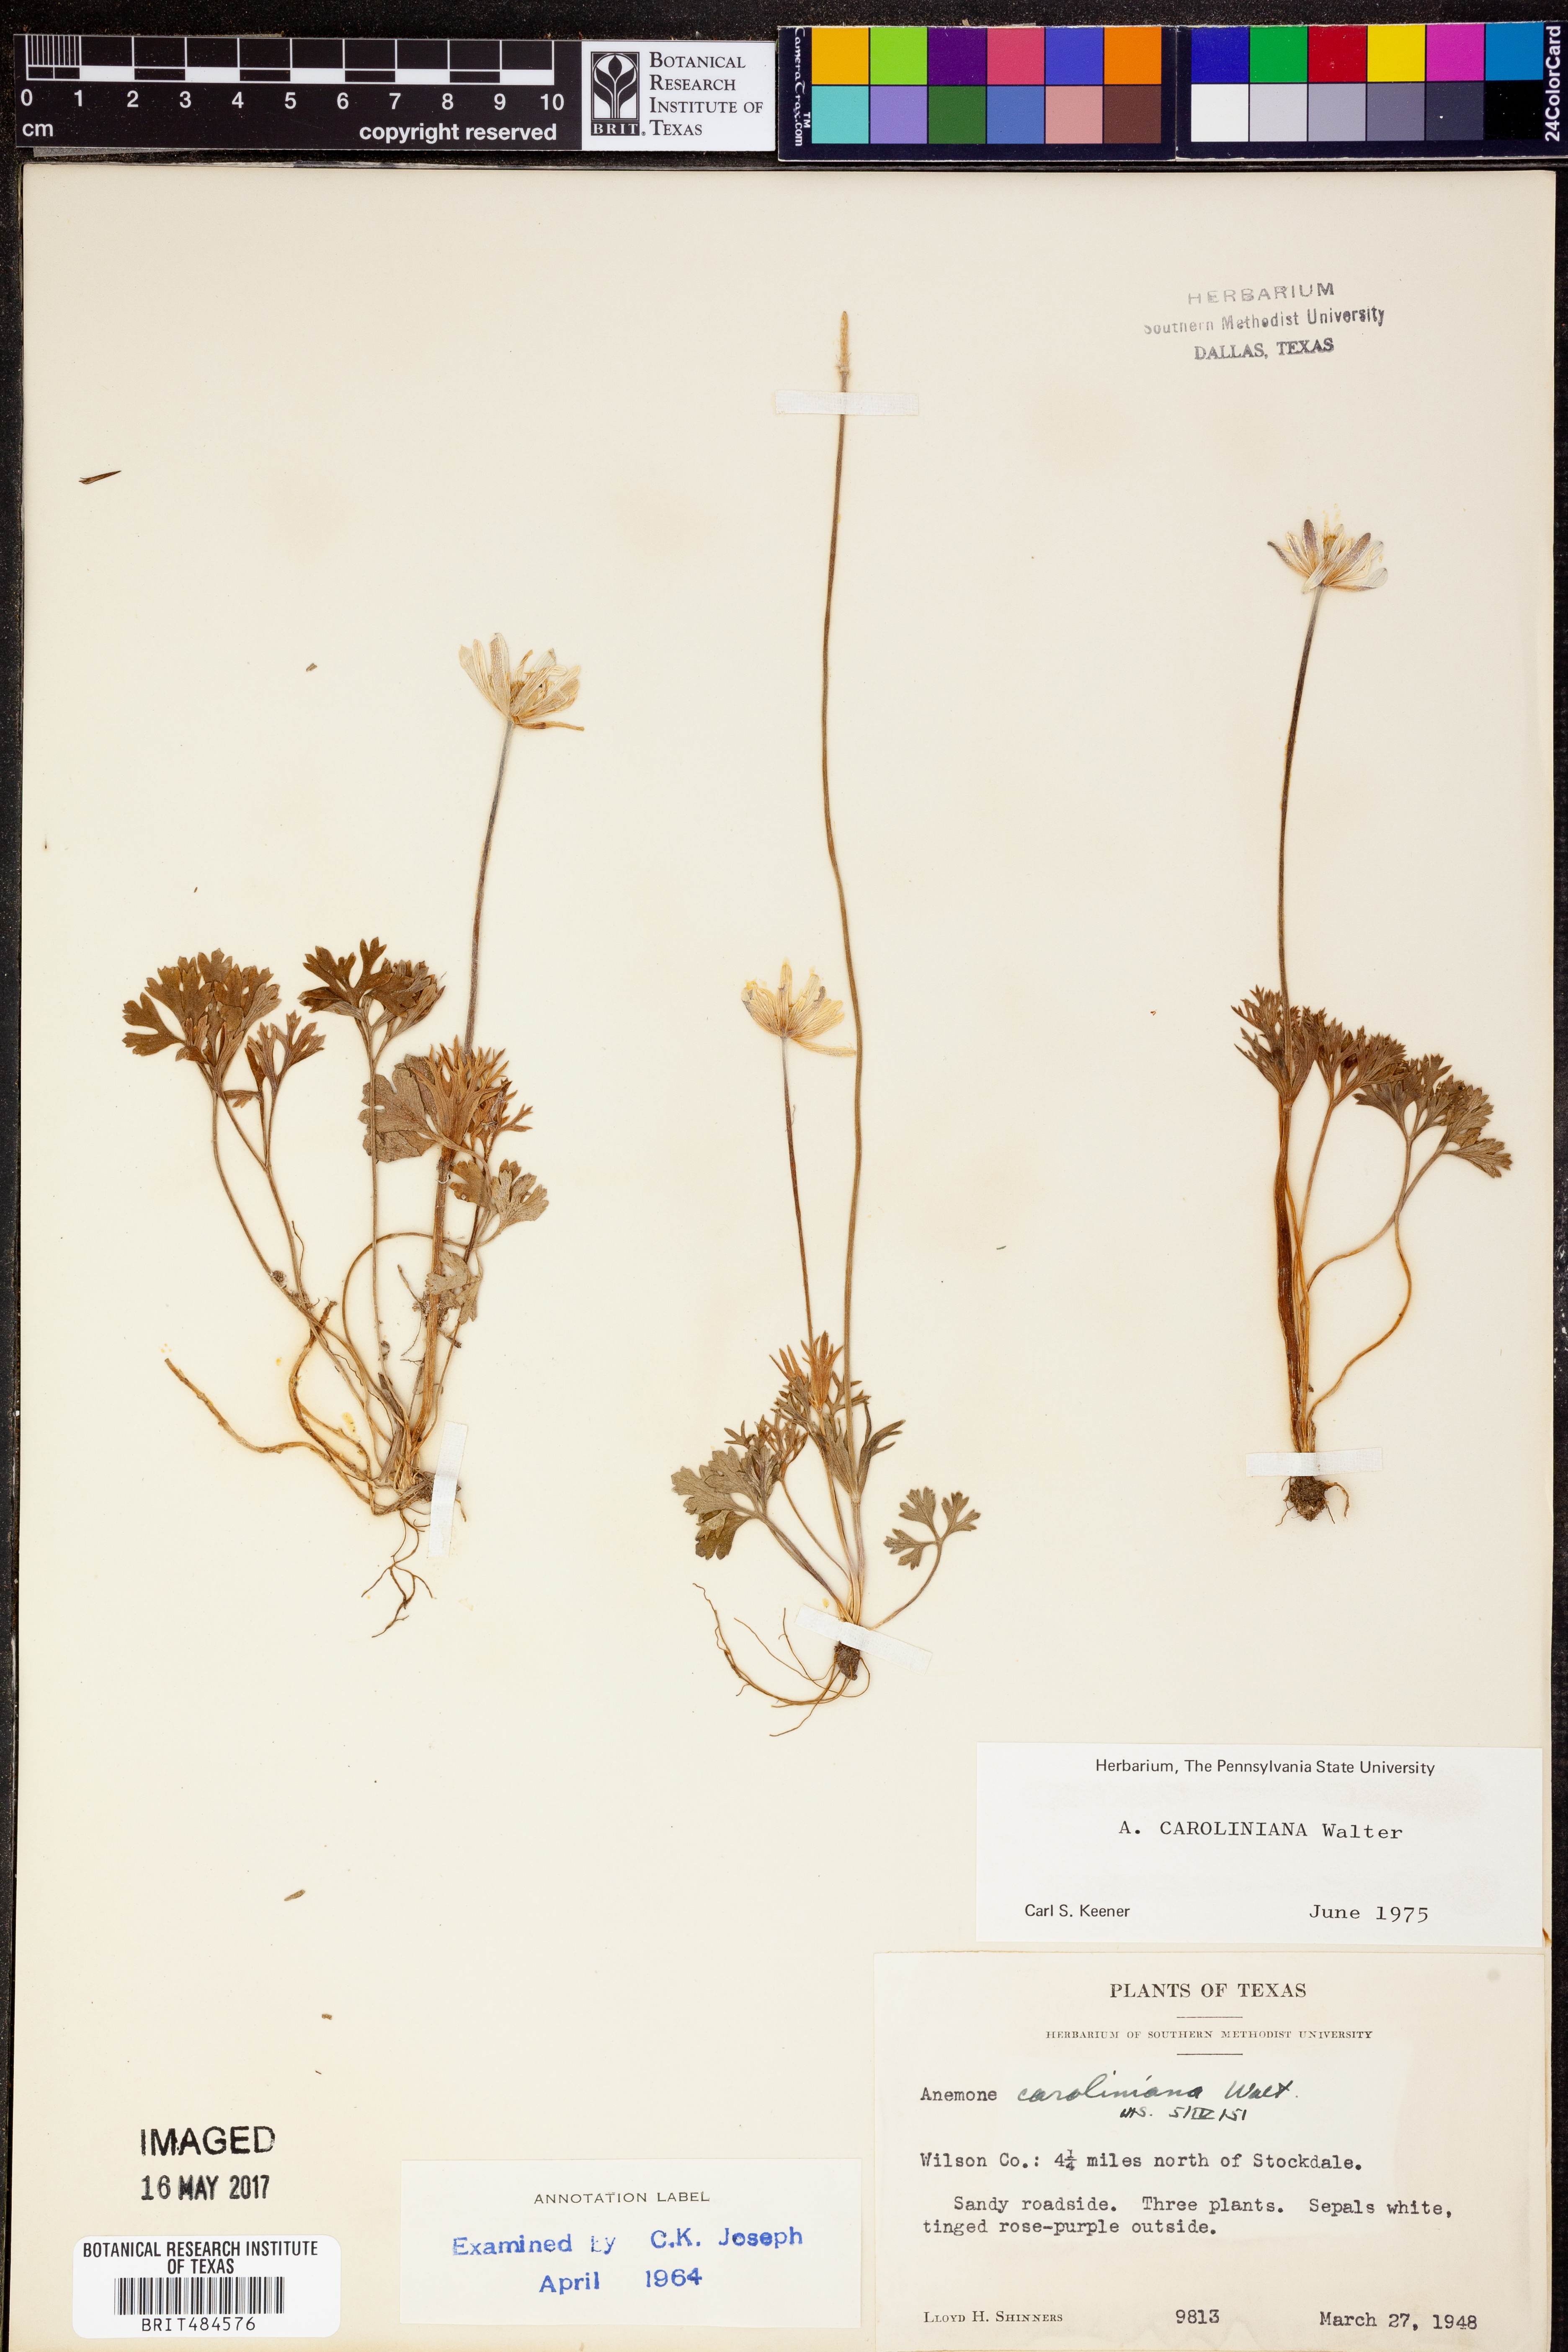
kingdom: Plantae
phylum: Tracheophyta
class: Magnoliopsida
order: Ranunculales
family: Ranunculaceae
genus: Anemone
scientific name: Anemone caroliniana
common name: Carolina anemone
